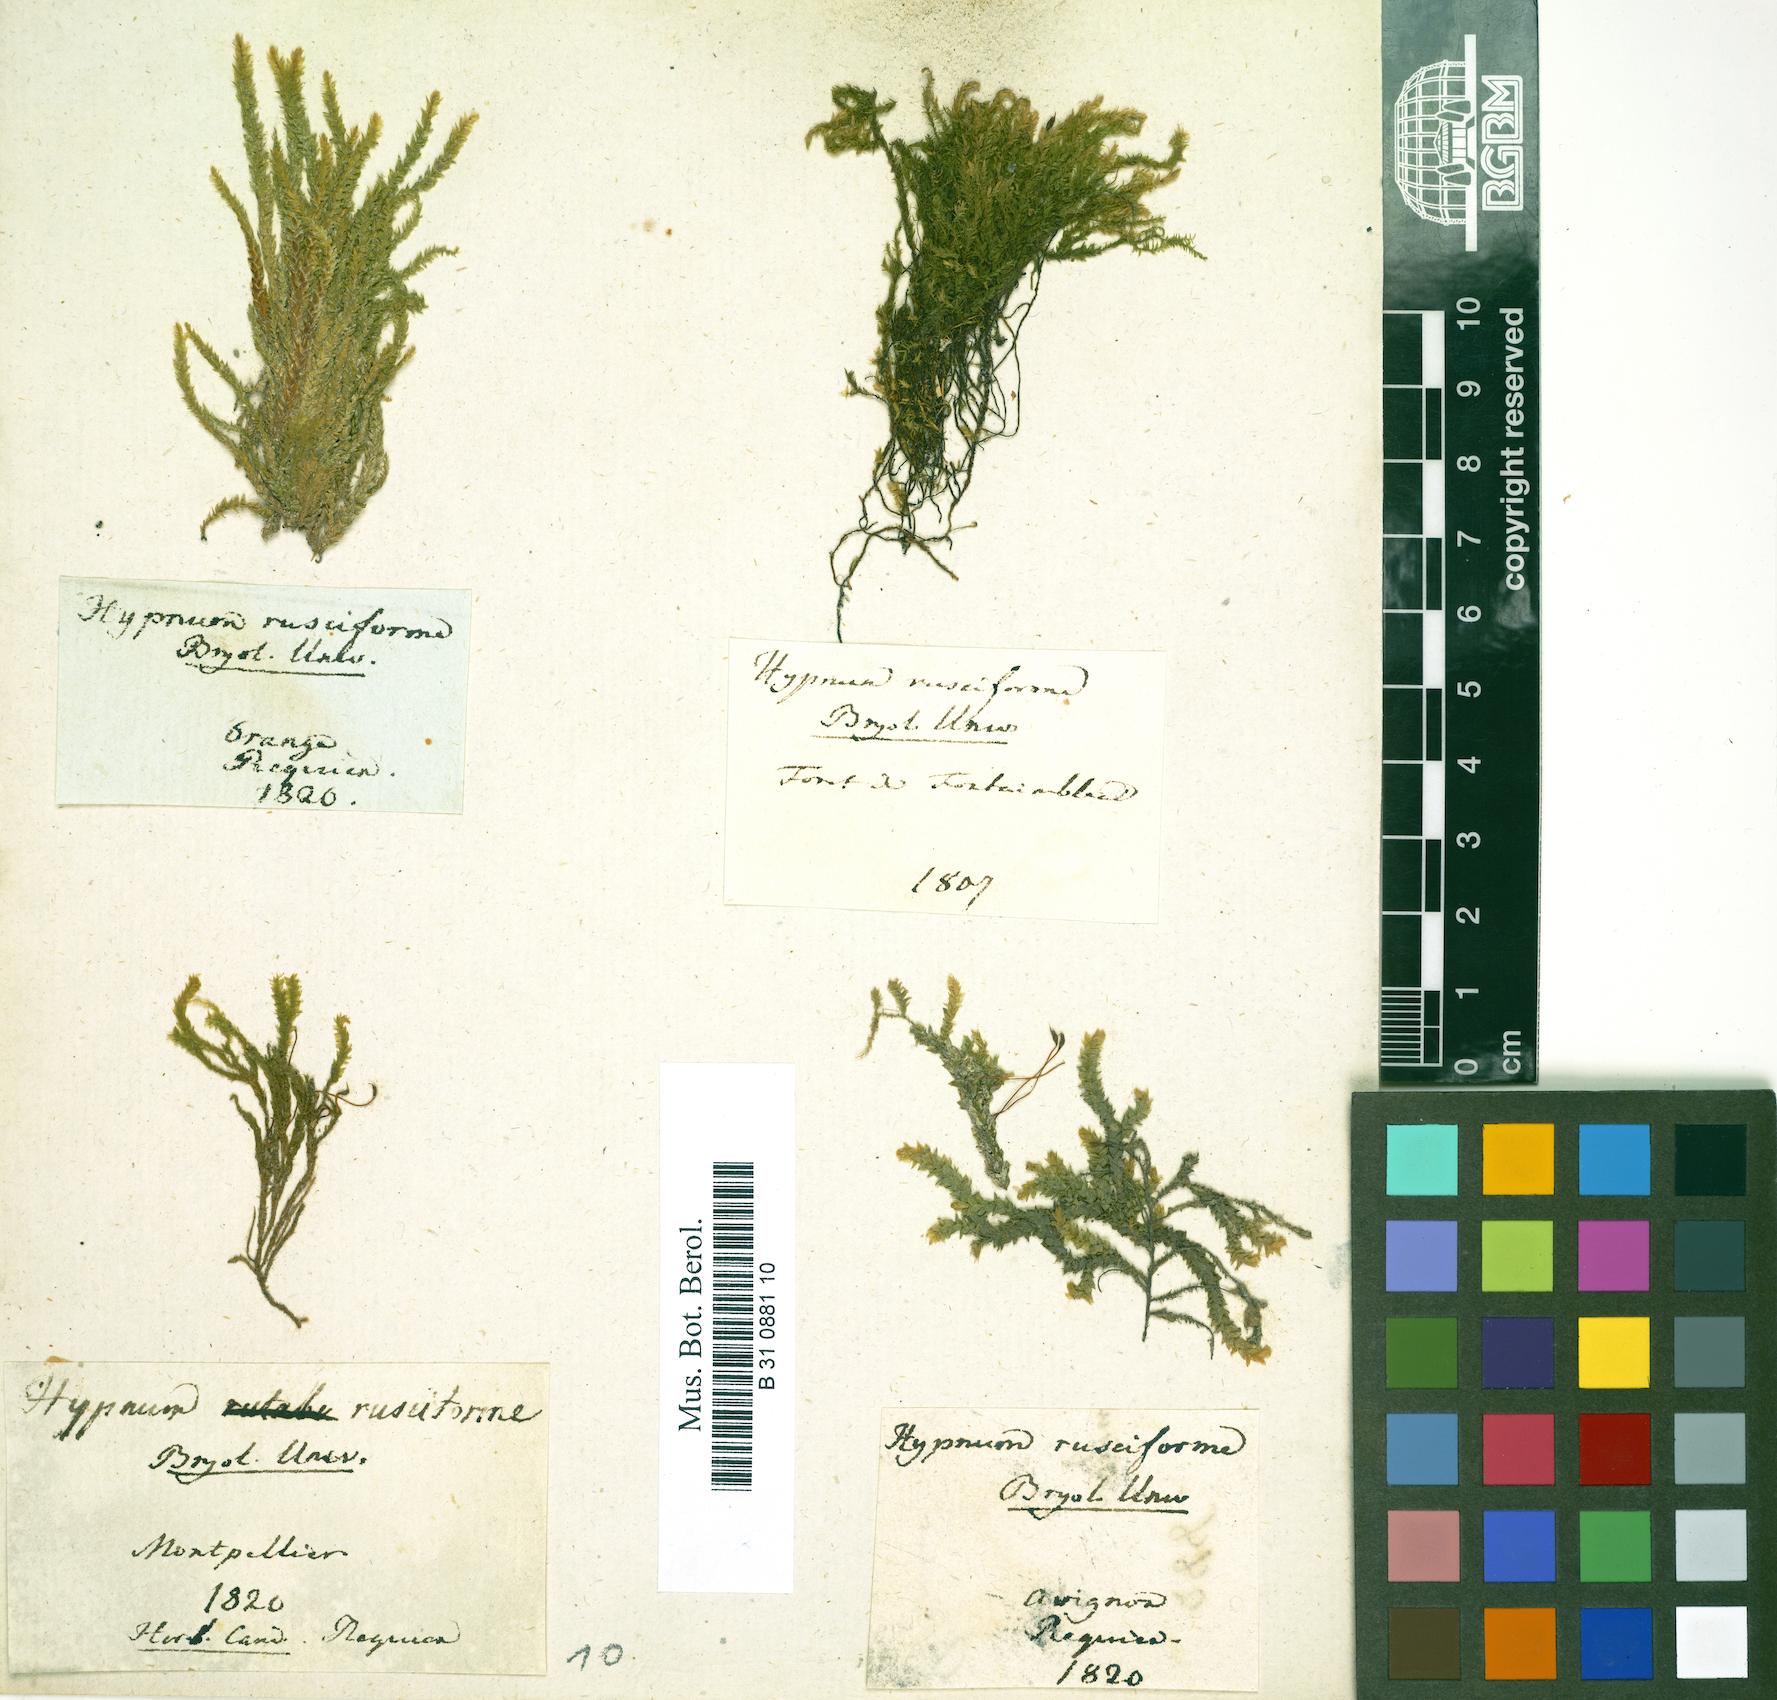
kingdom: Plantae
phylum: Bryophyta
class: Bryopsida
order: Hypnales
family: Brachytheciaceae
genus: Rhynchostegium
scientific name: Rhynchostegium riparioides
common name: Platyhypnidium moss
